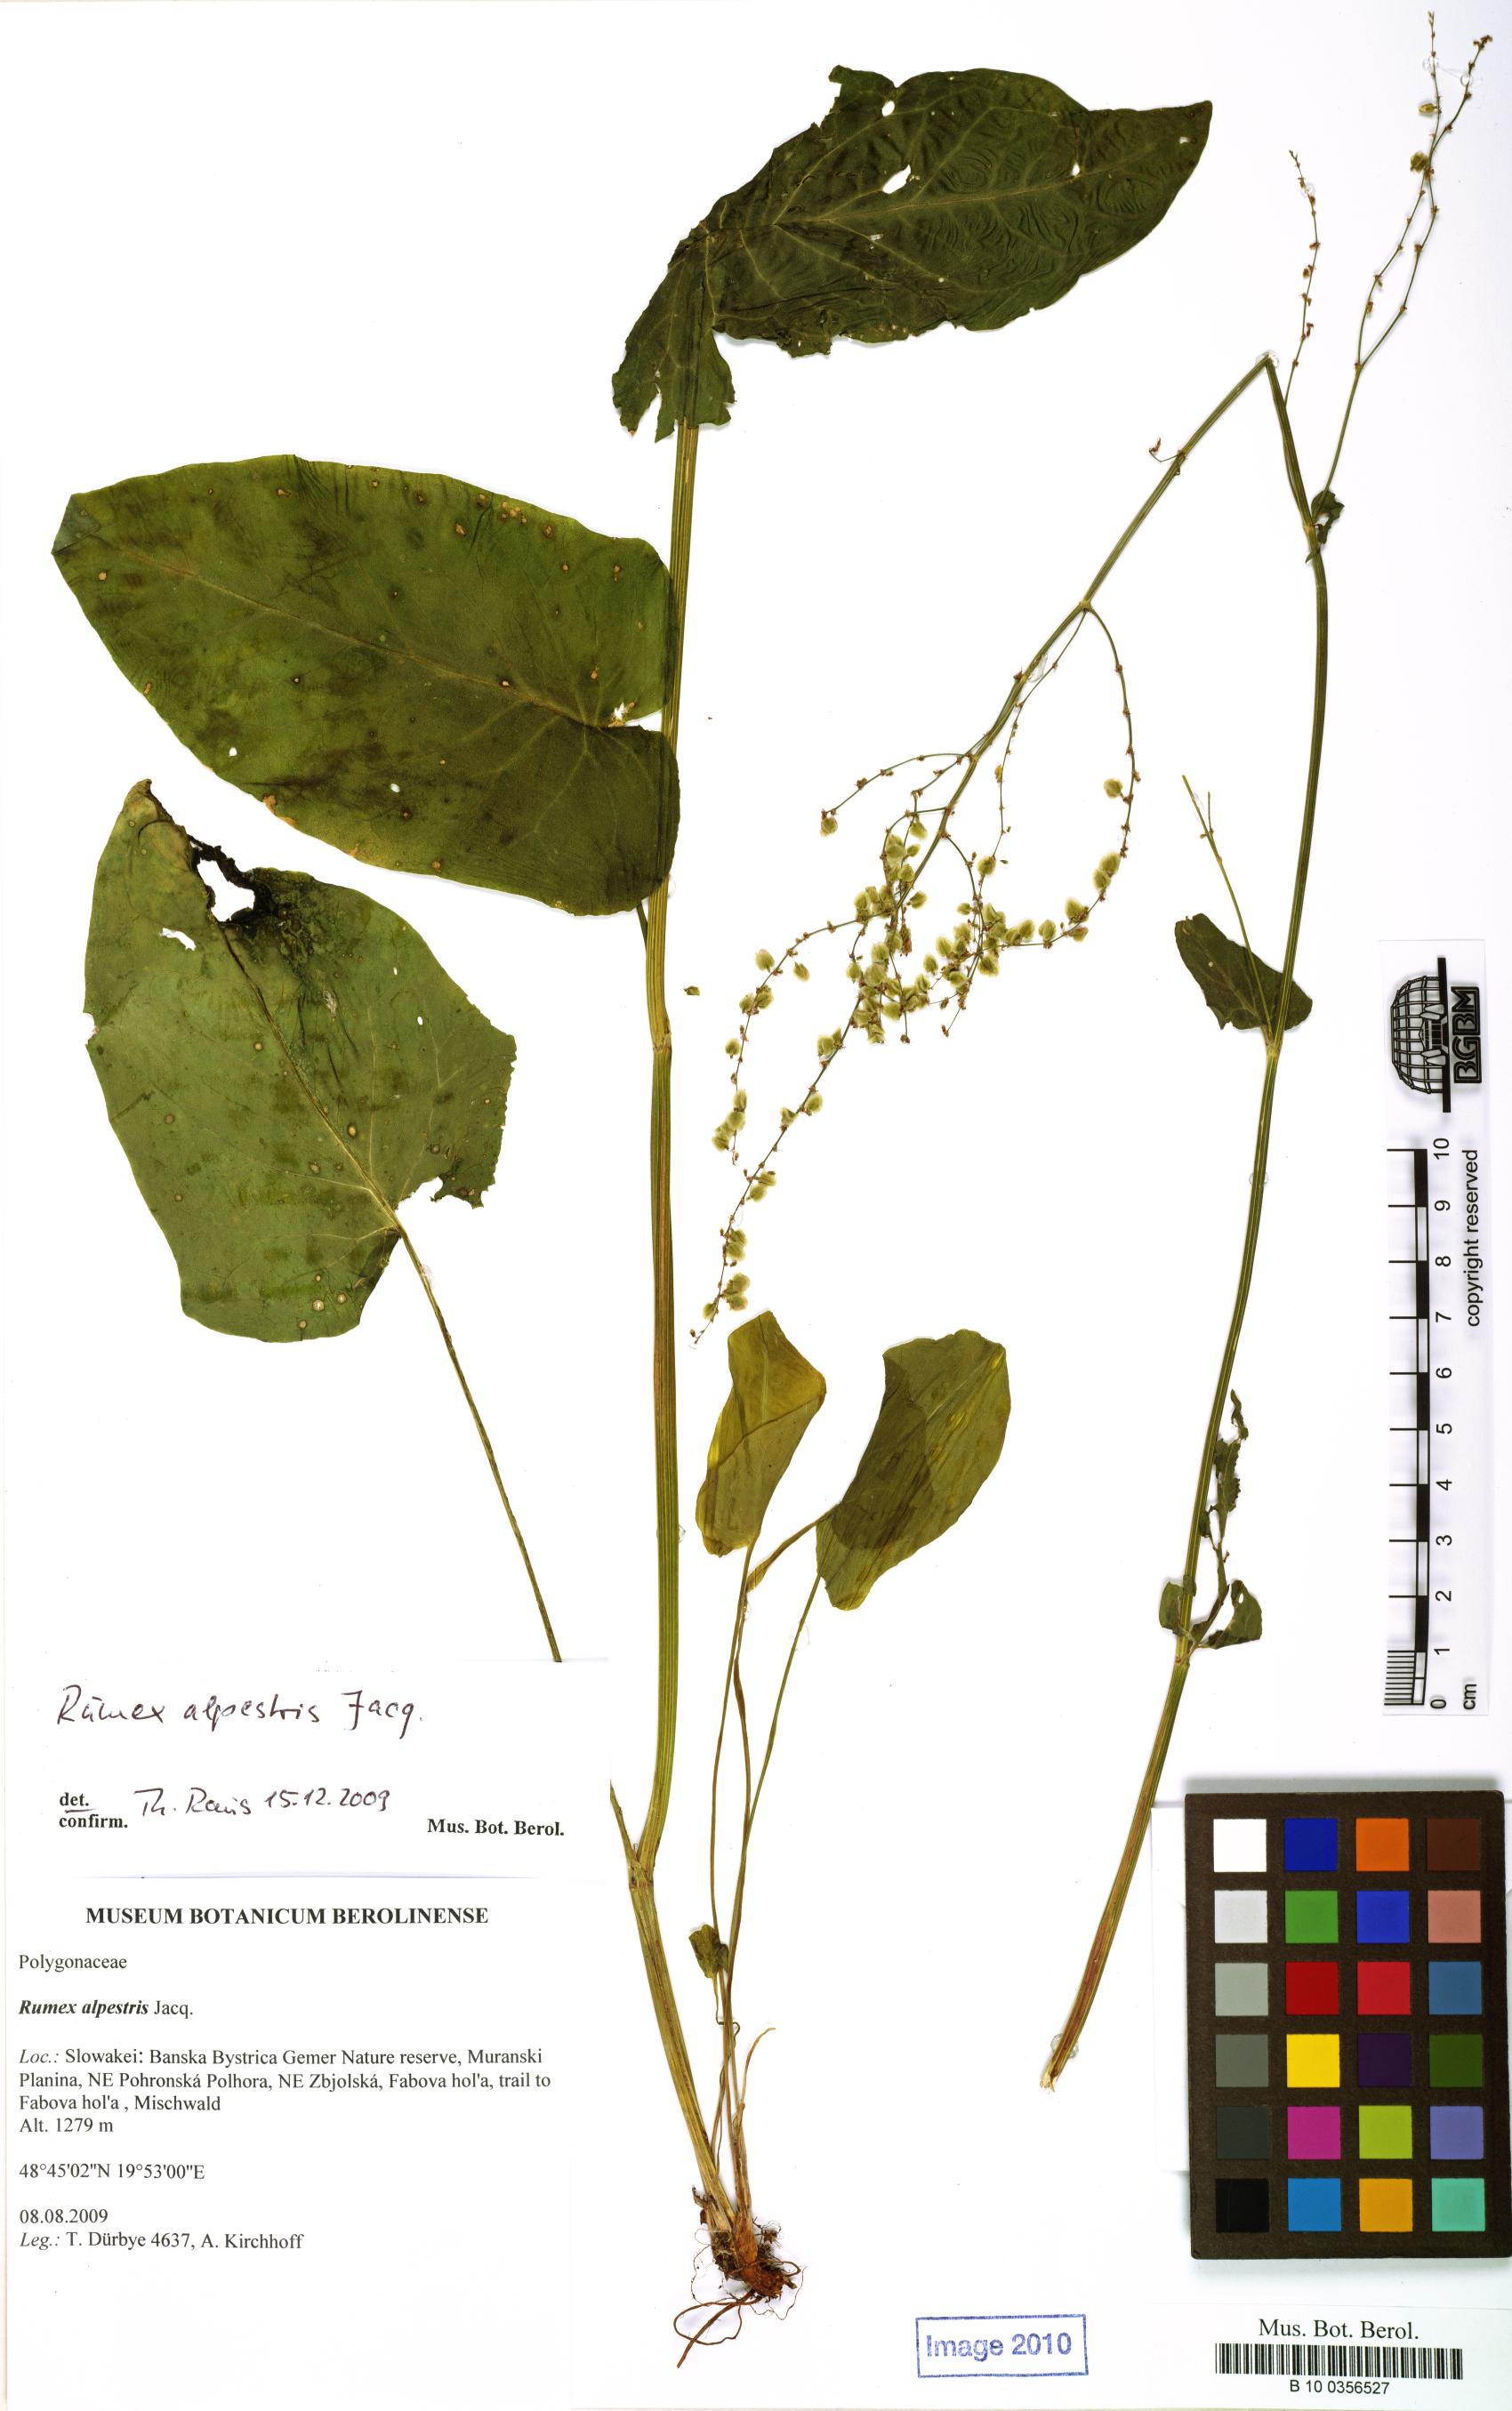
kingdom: Plantae
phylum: Tracheophyta
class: Magnoliopsida
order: Caryophyllales
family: Polygonaceae
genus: Rumex
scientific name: Rumex scutatus
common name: French sorrel
